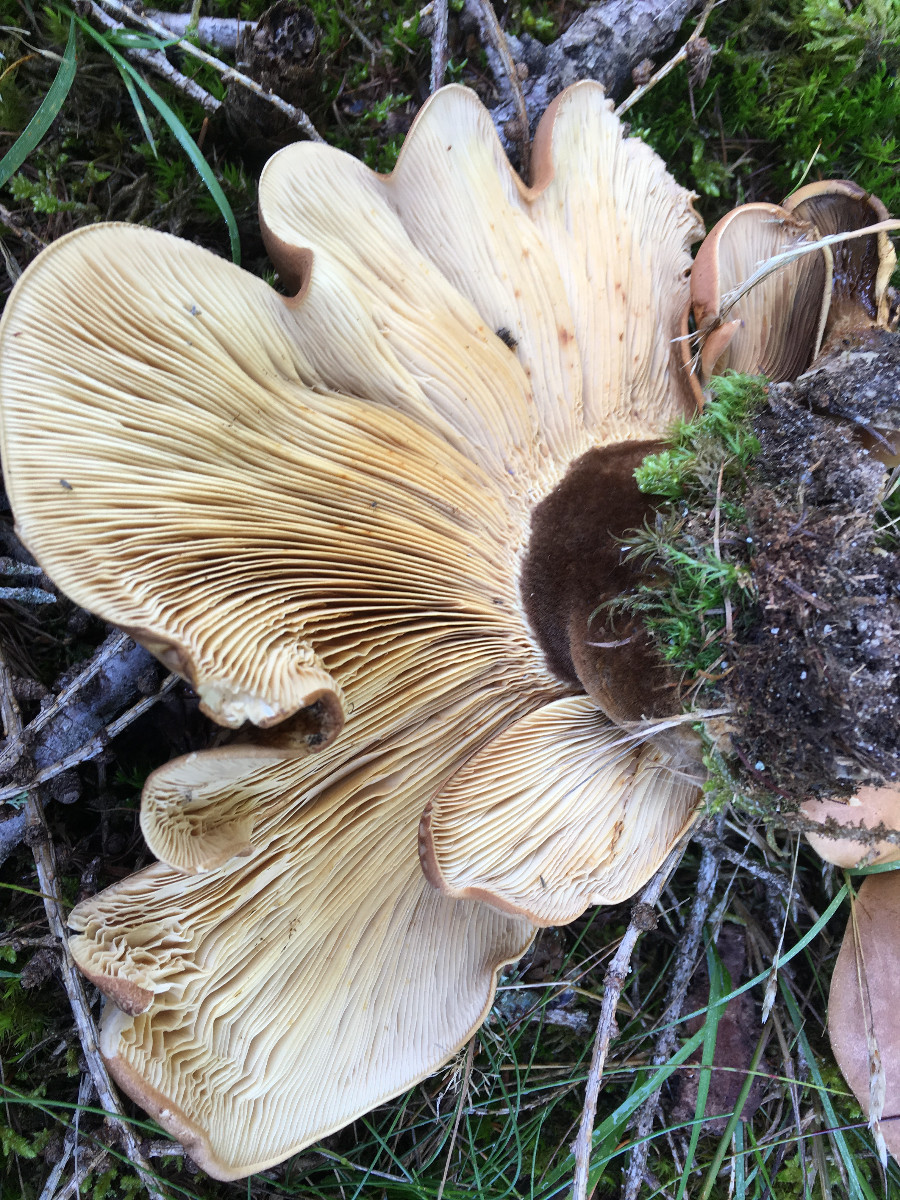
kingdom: Fungi
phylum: Basidiomycota
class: Agaricomycetes
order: Boletales
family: Tapinellaceae
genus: Tapinella
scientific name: Tapinella atrotomentosa
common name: sortfiltet viftesvamp
